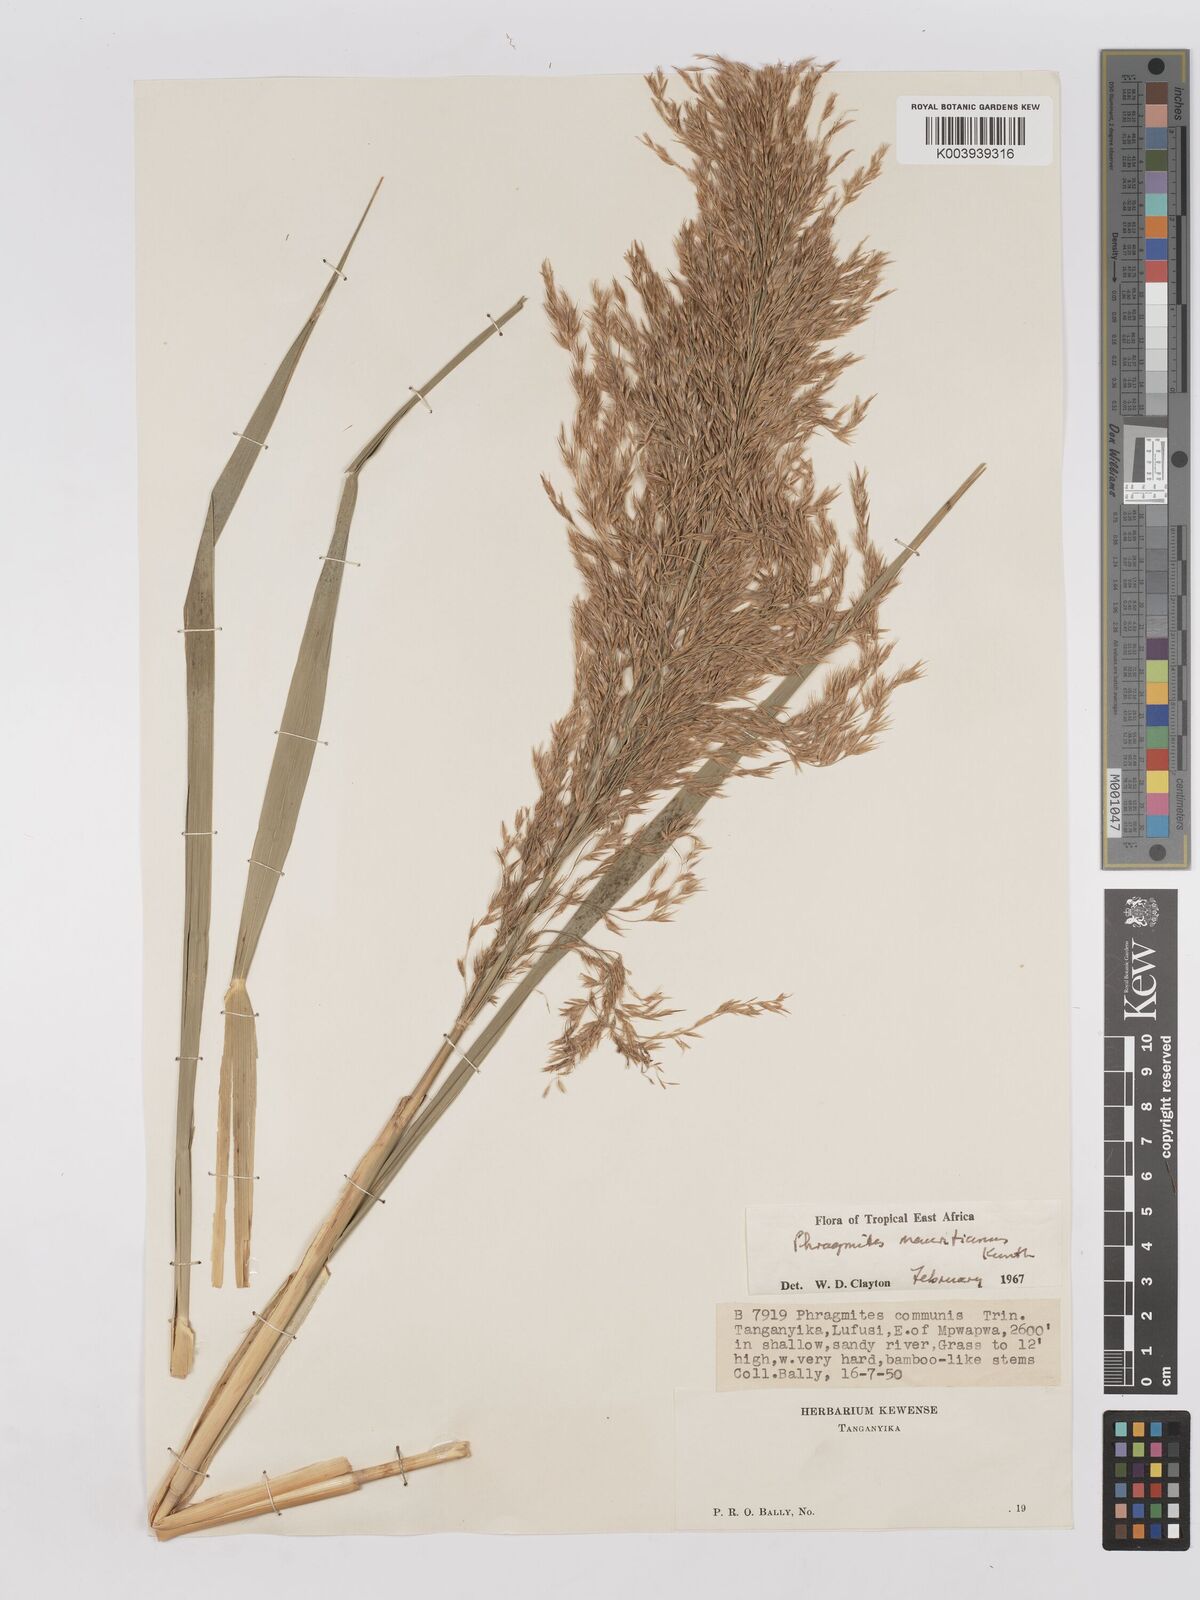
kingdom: Plantae
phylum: Tracheophyta
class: Liliopsida
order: Poales
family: Poaceae
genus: Phragmites
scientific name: Phragmites mauritianus
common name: Reed grass
